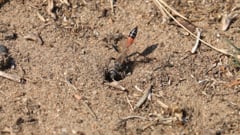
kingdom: Animalia
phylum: Arthropoda
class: Insecta
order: Hymenoptera
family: Sphecidae
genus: Prionyx
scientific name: Prionyx kirbii
